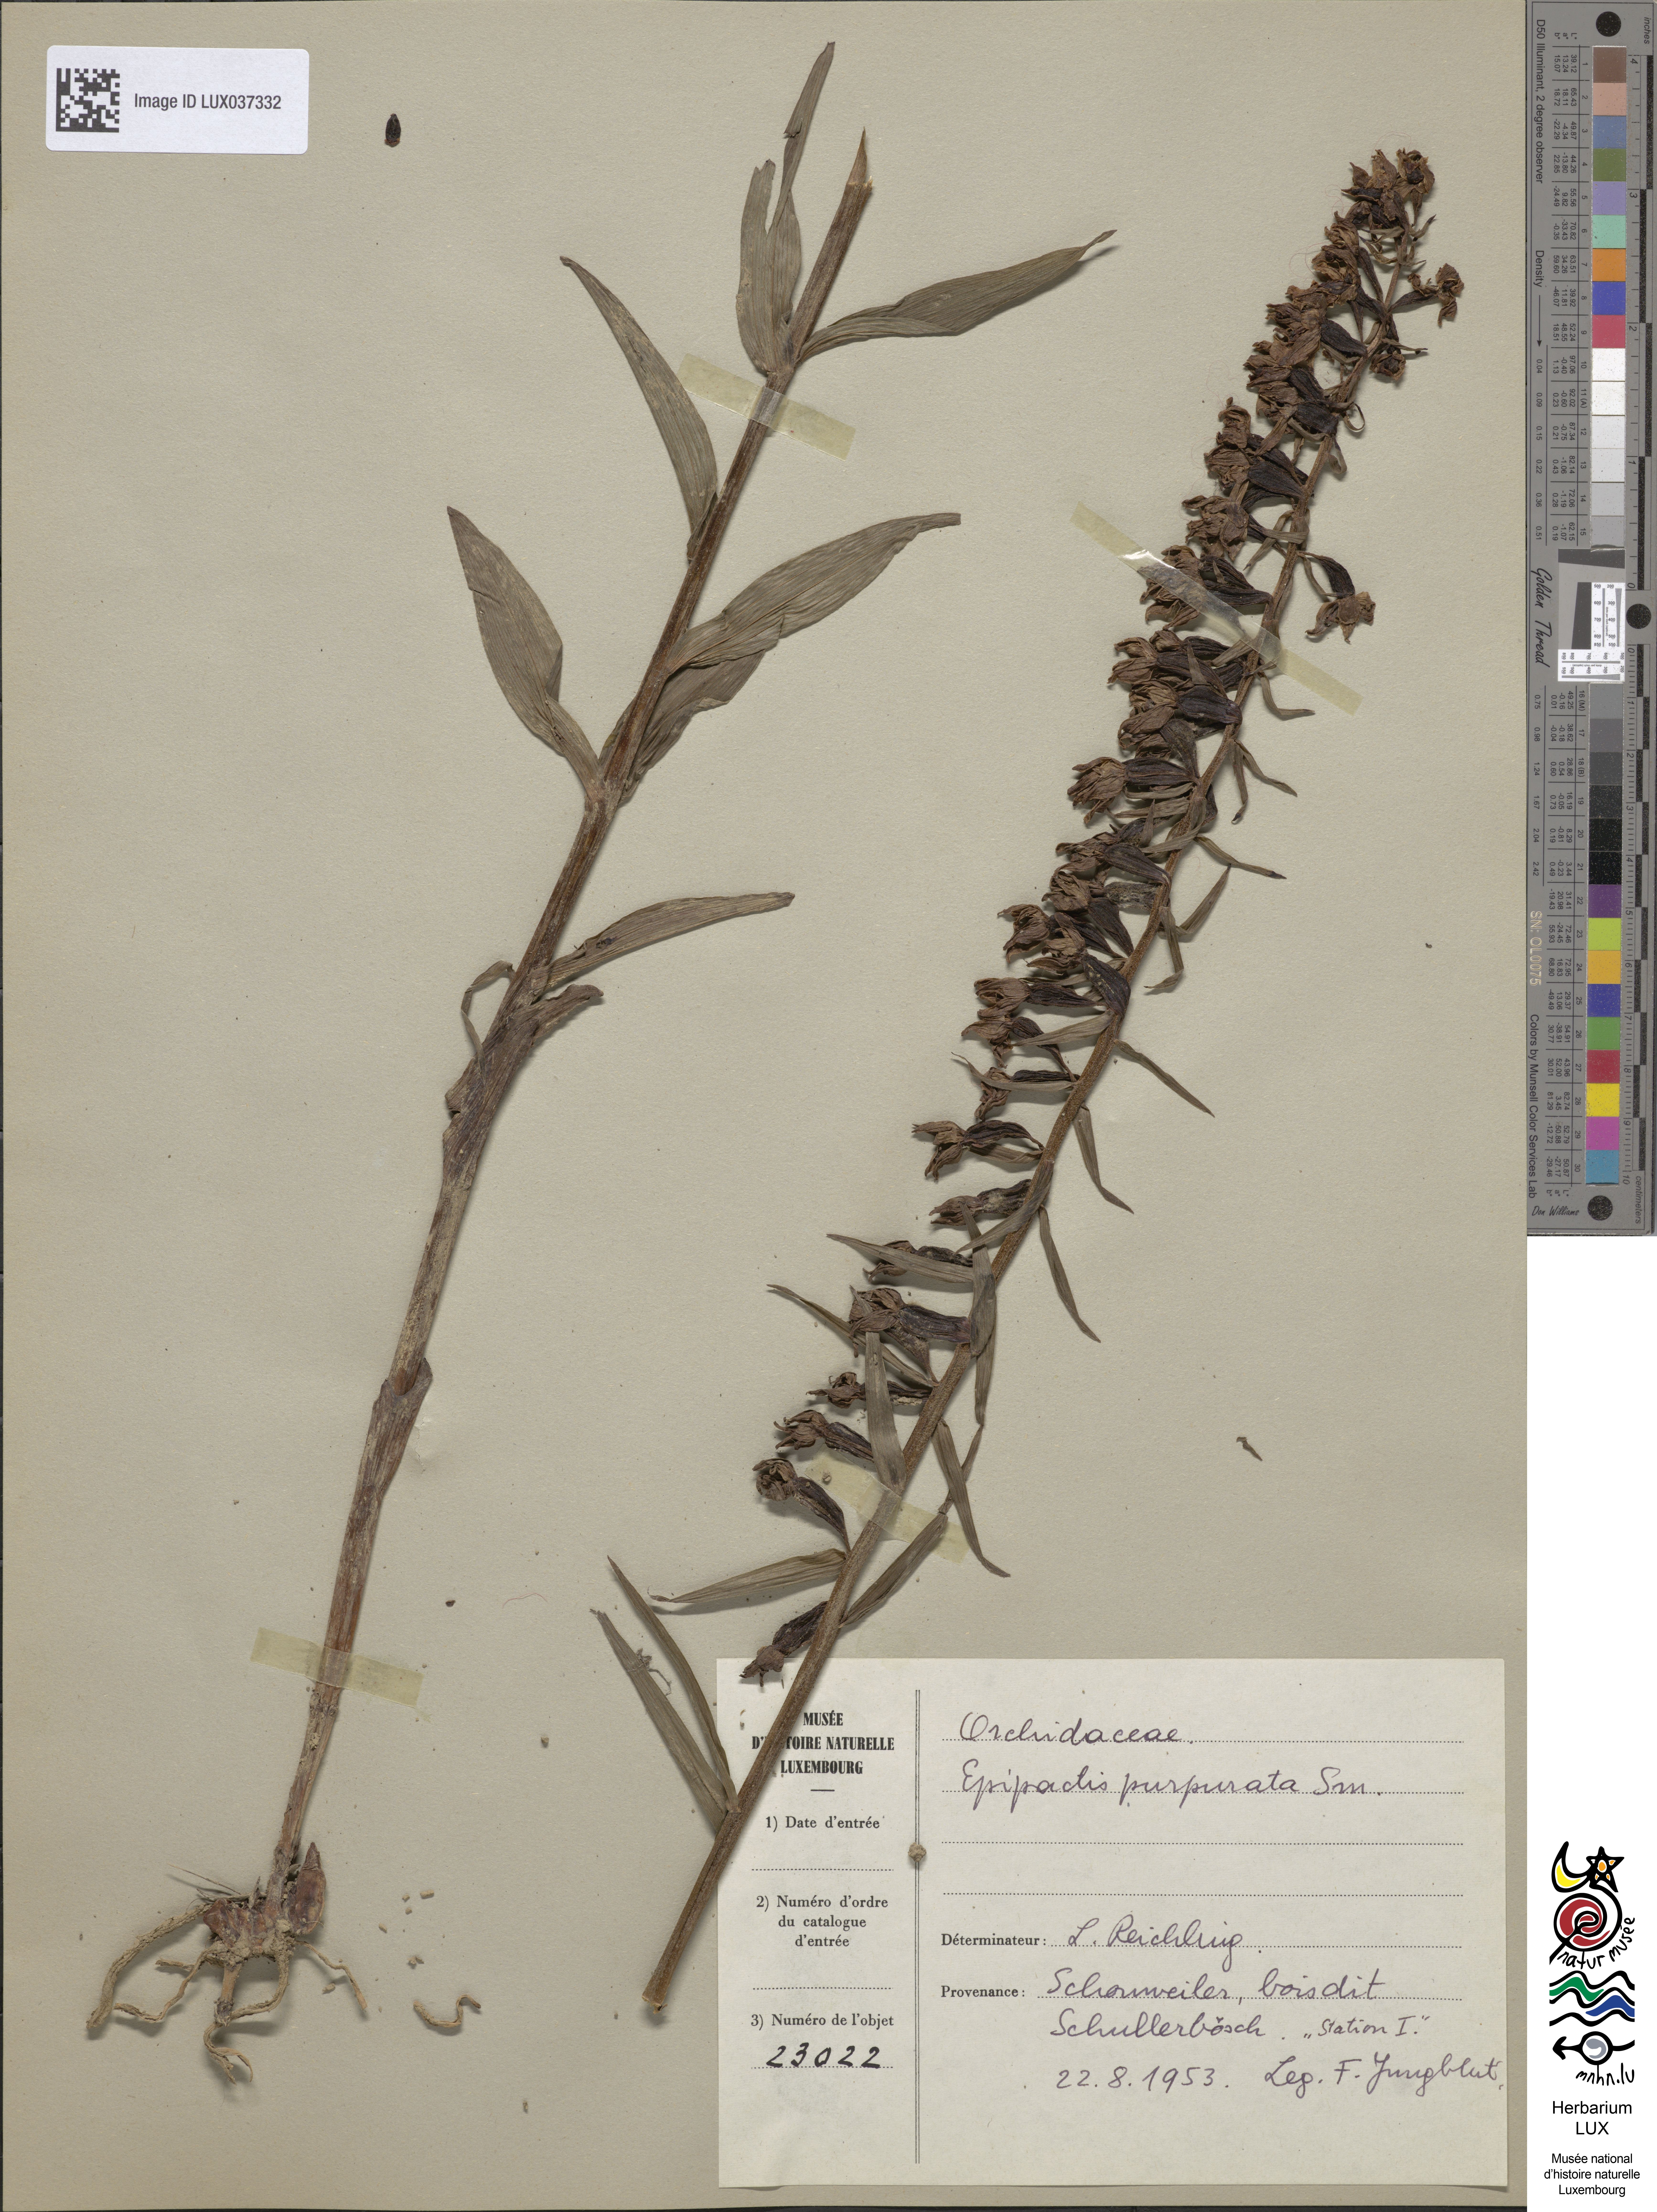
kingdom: Plantae
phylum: Tracheophyta
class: Liliopsida
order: Asparagales
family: Orchidaceae
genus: Epipactis
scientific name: Epipactis purpurata
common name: Violet helleborine
